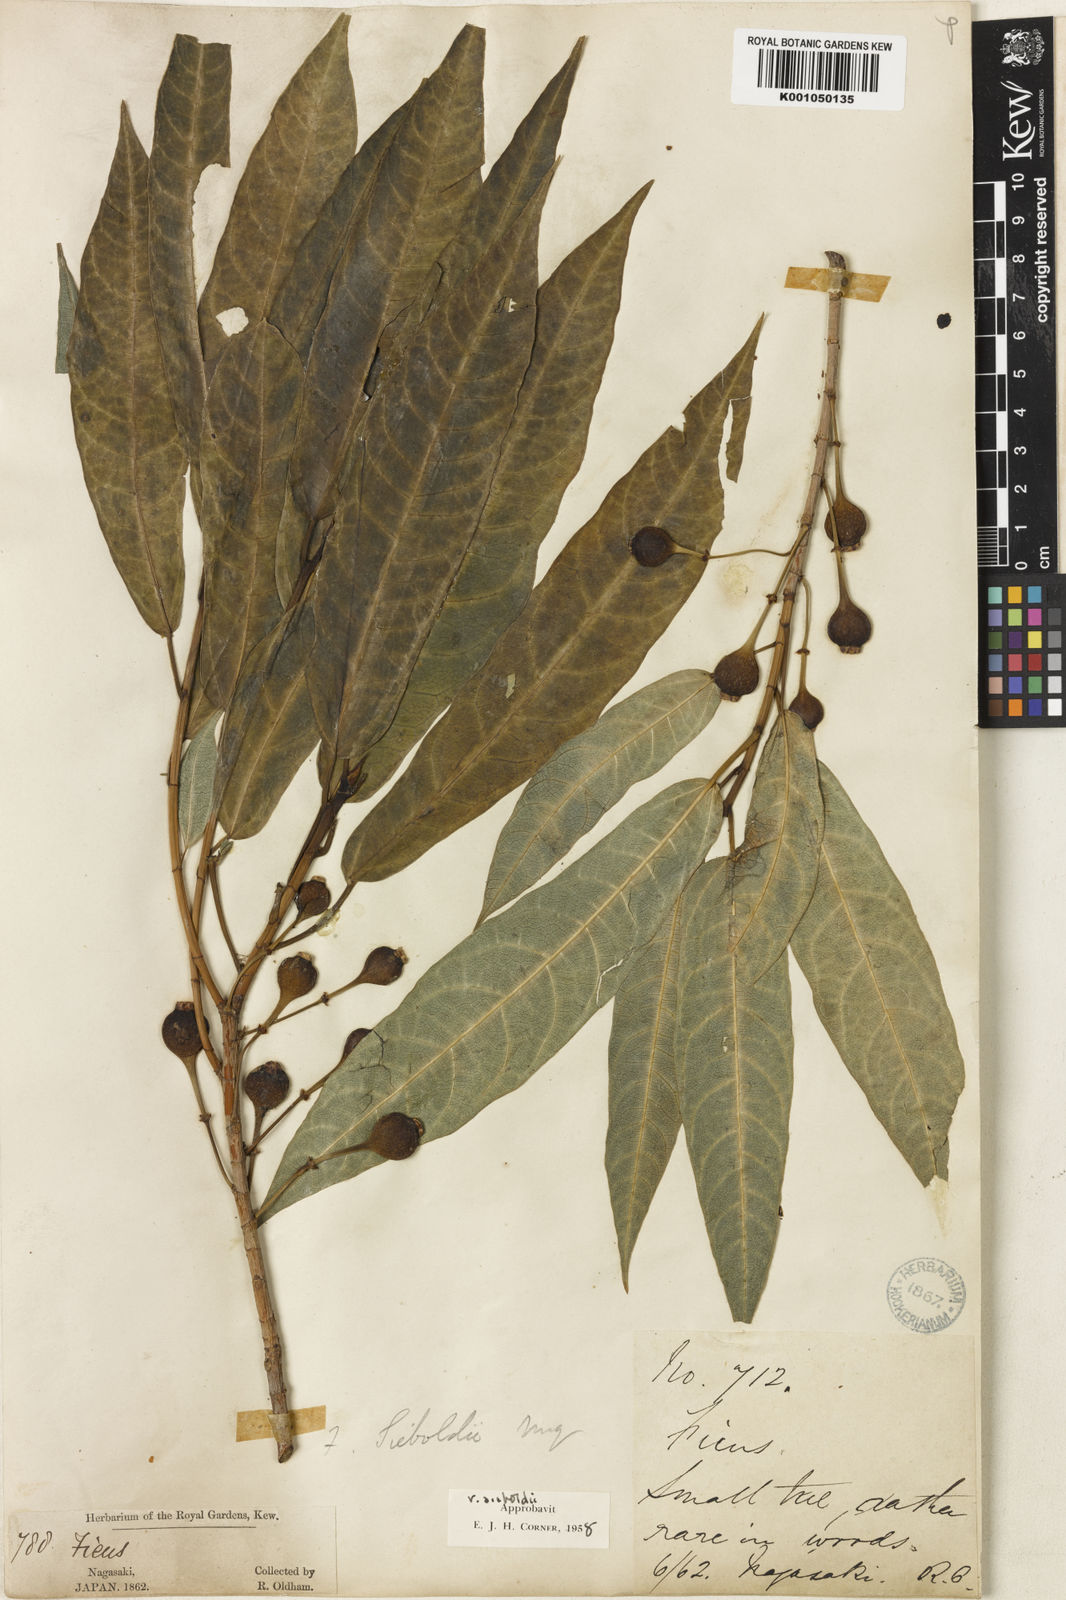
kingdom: Plantae
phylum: Tracheophyta
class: Magnoliopsida
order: Rosales
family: Moraceae
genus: Ficus
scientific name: Ficus erecta
